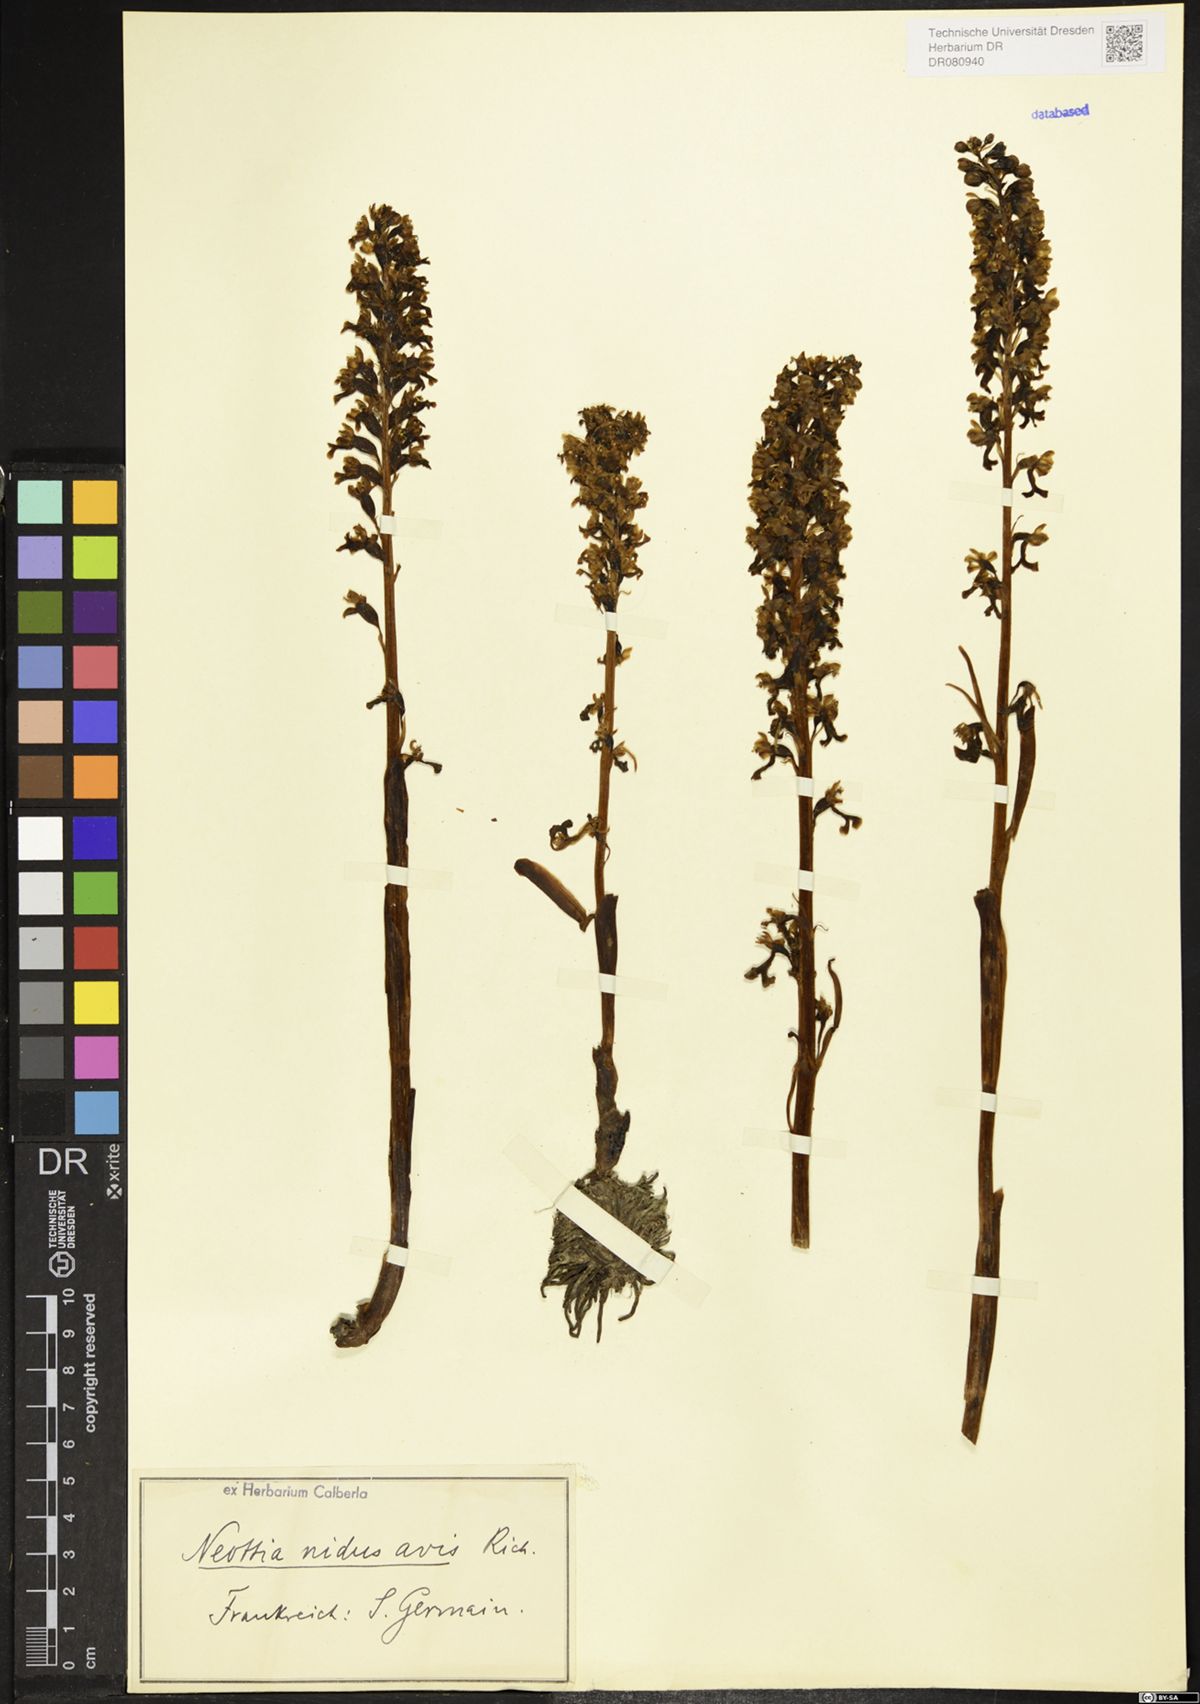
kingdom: Plantae
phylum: Tracheophyta
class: Liliopsida
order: Asparagales
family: Orchidaceae
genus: Neottia
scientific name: Neottia nidus-avis
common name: Bird's-nest orchid
